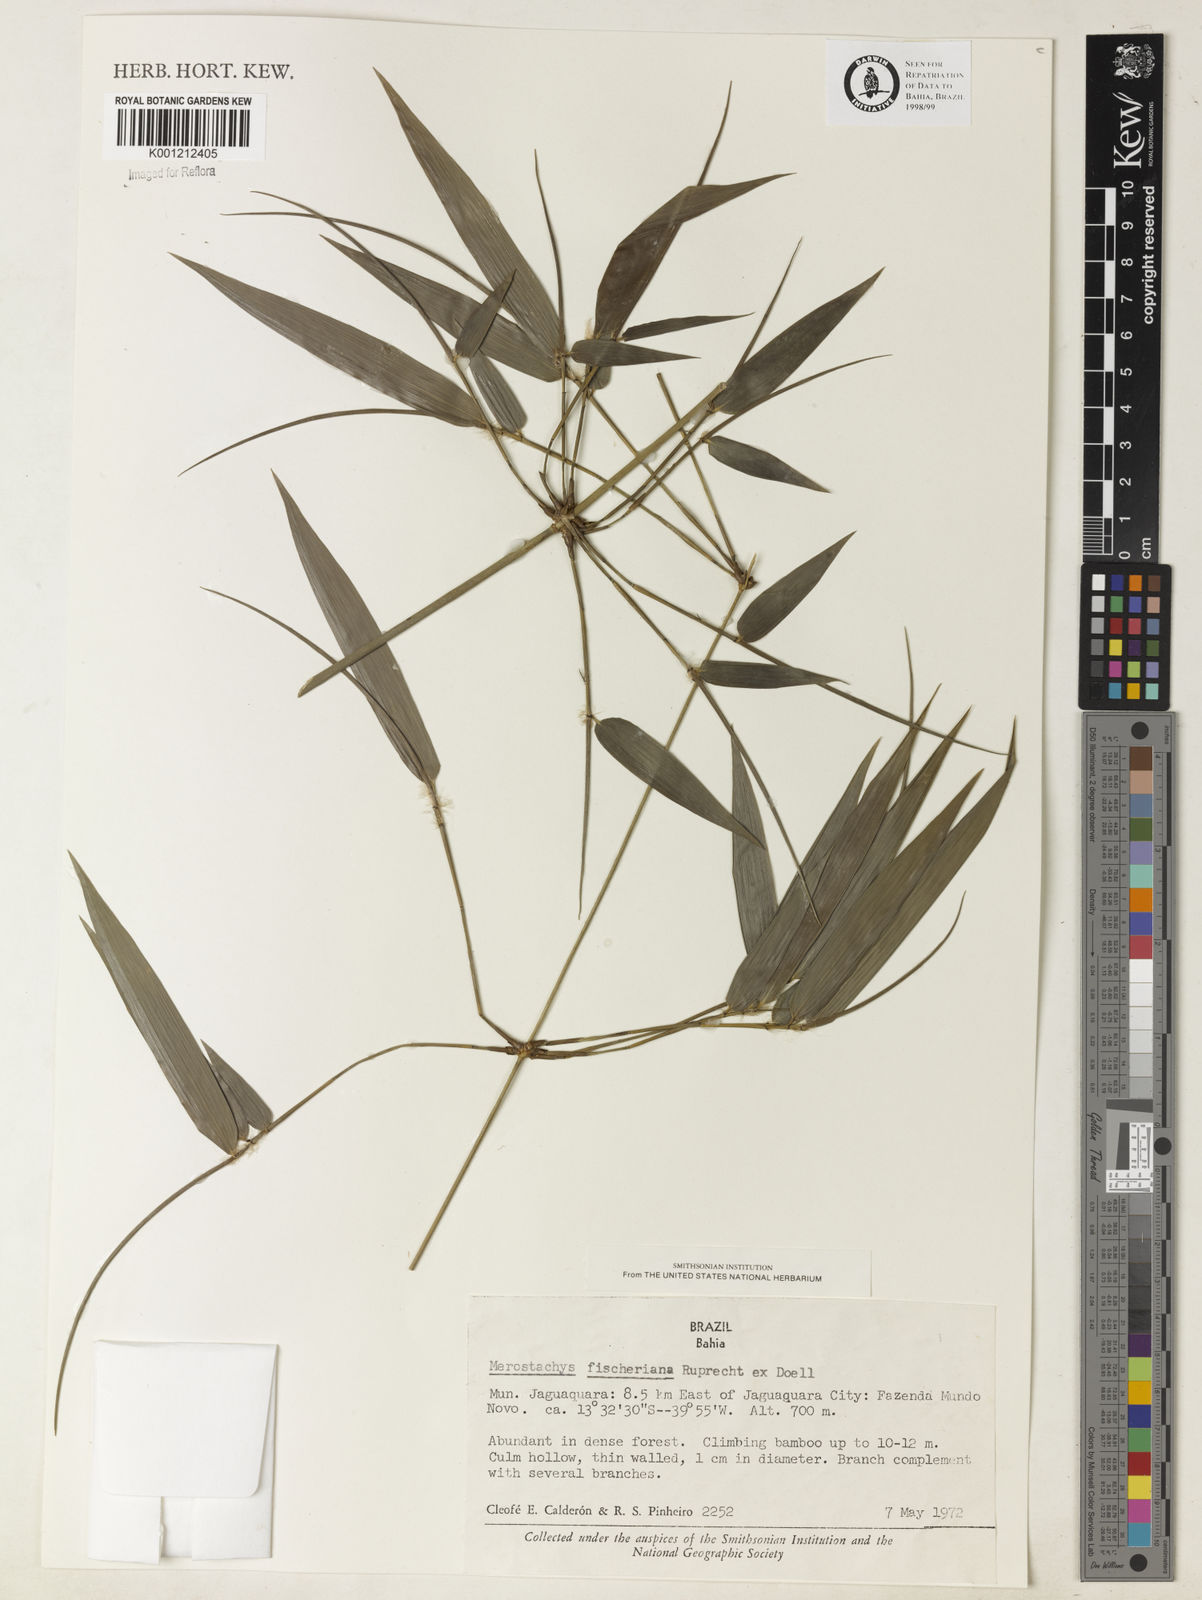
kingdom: Plantae
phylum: Tracheophyta
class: Liliopsida
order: Poales
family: Poaceae
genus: Merostachys
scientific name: Merostachys
